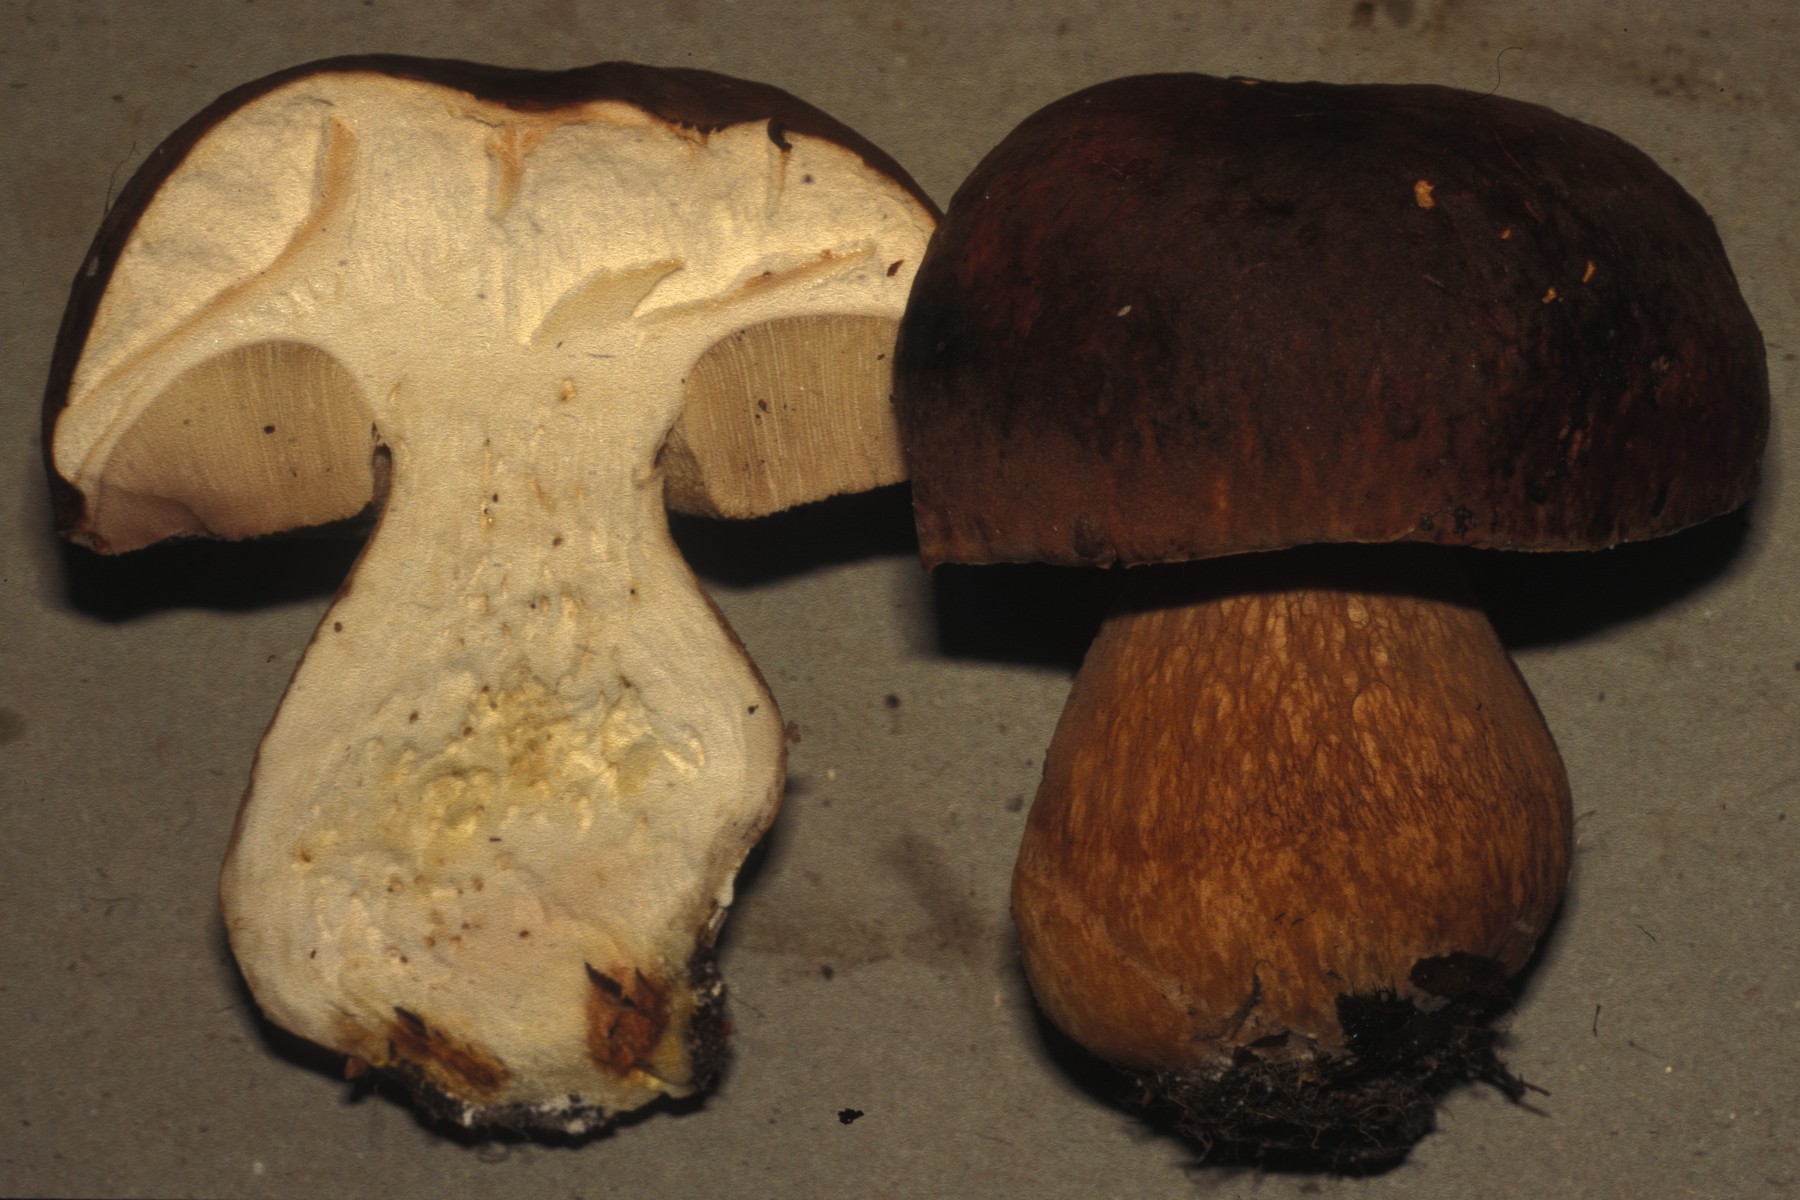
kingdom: Fungi
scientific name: Fungi
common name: bronze-rørhat
